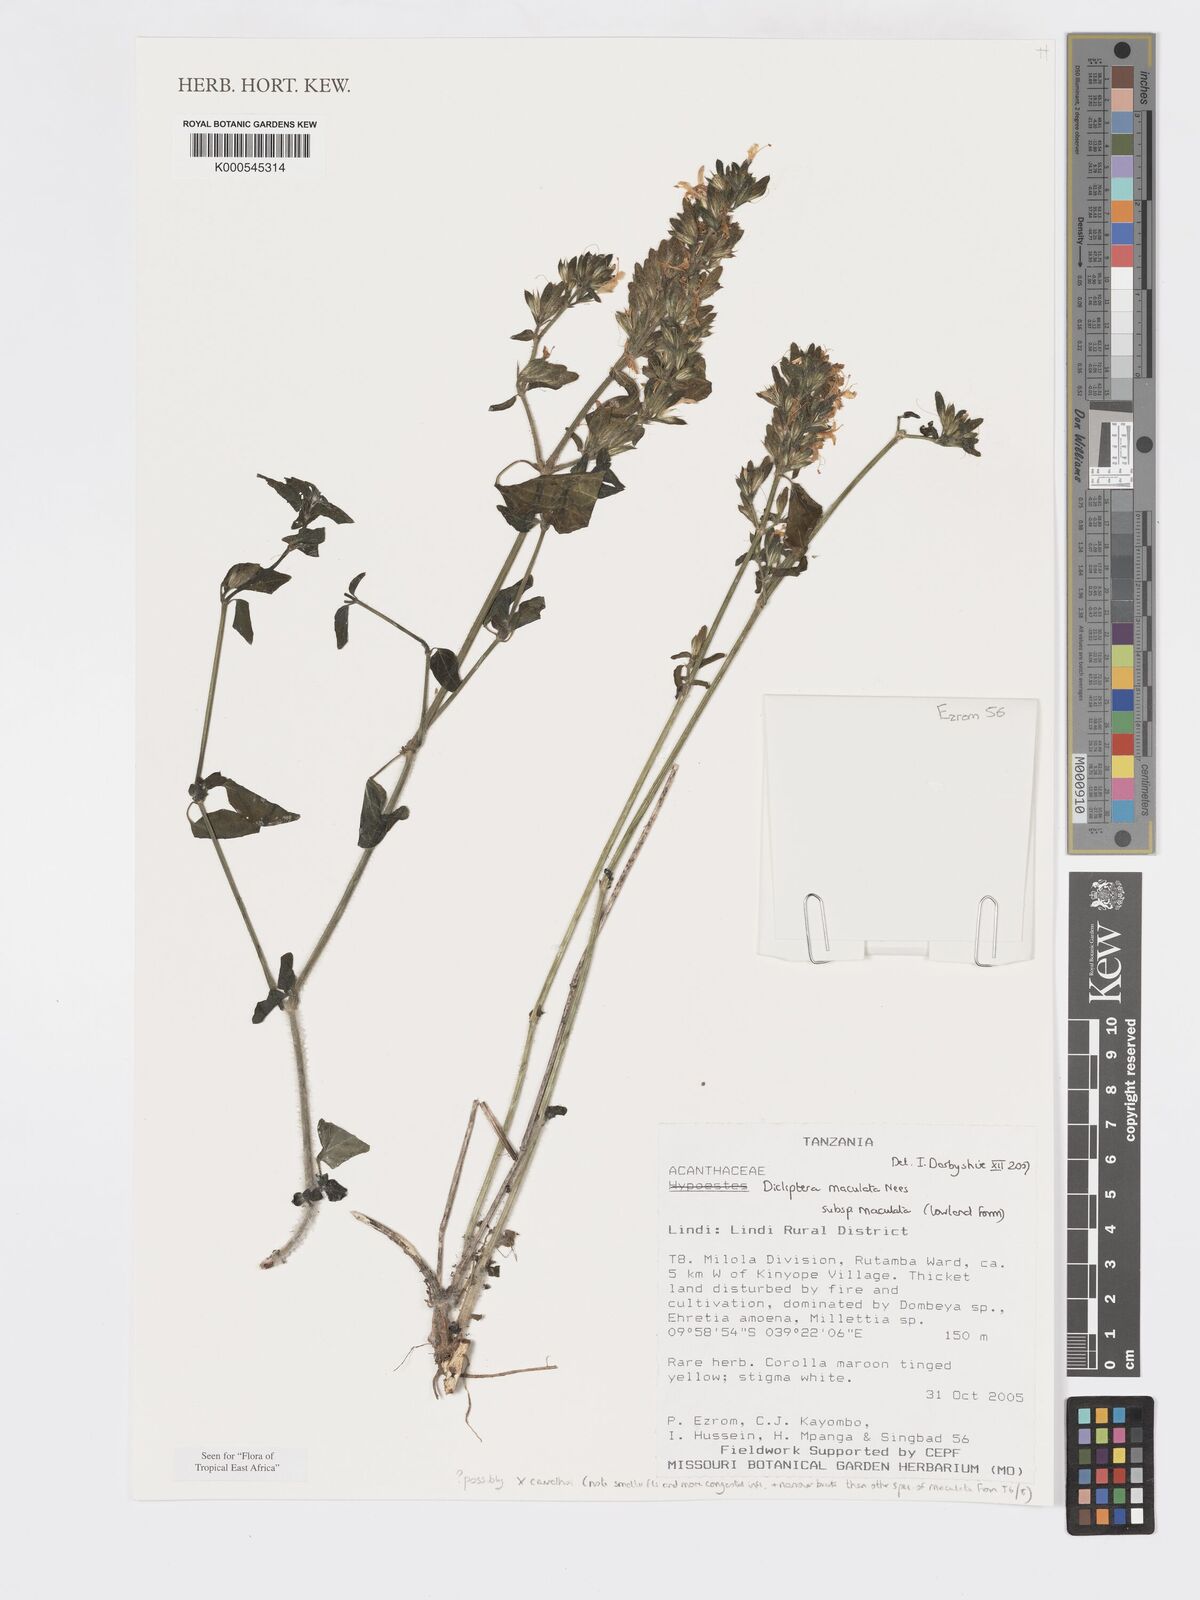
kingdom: Plantae
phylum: Tracheophyta
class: Magnoliopsida
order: Lamiales
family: Acanthaceae
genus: Dicliptera
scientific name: Dicliptera maculata
